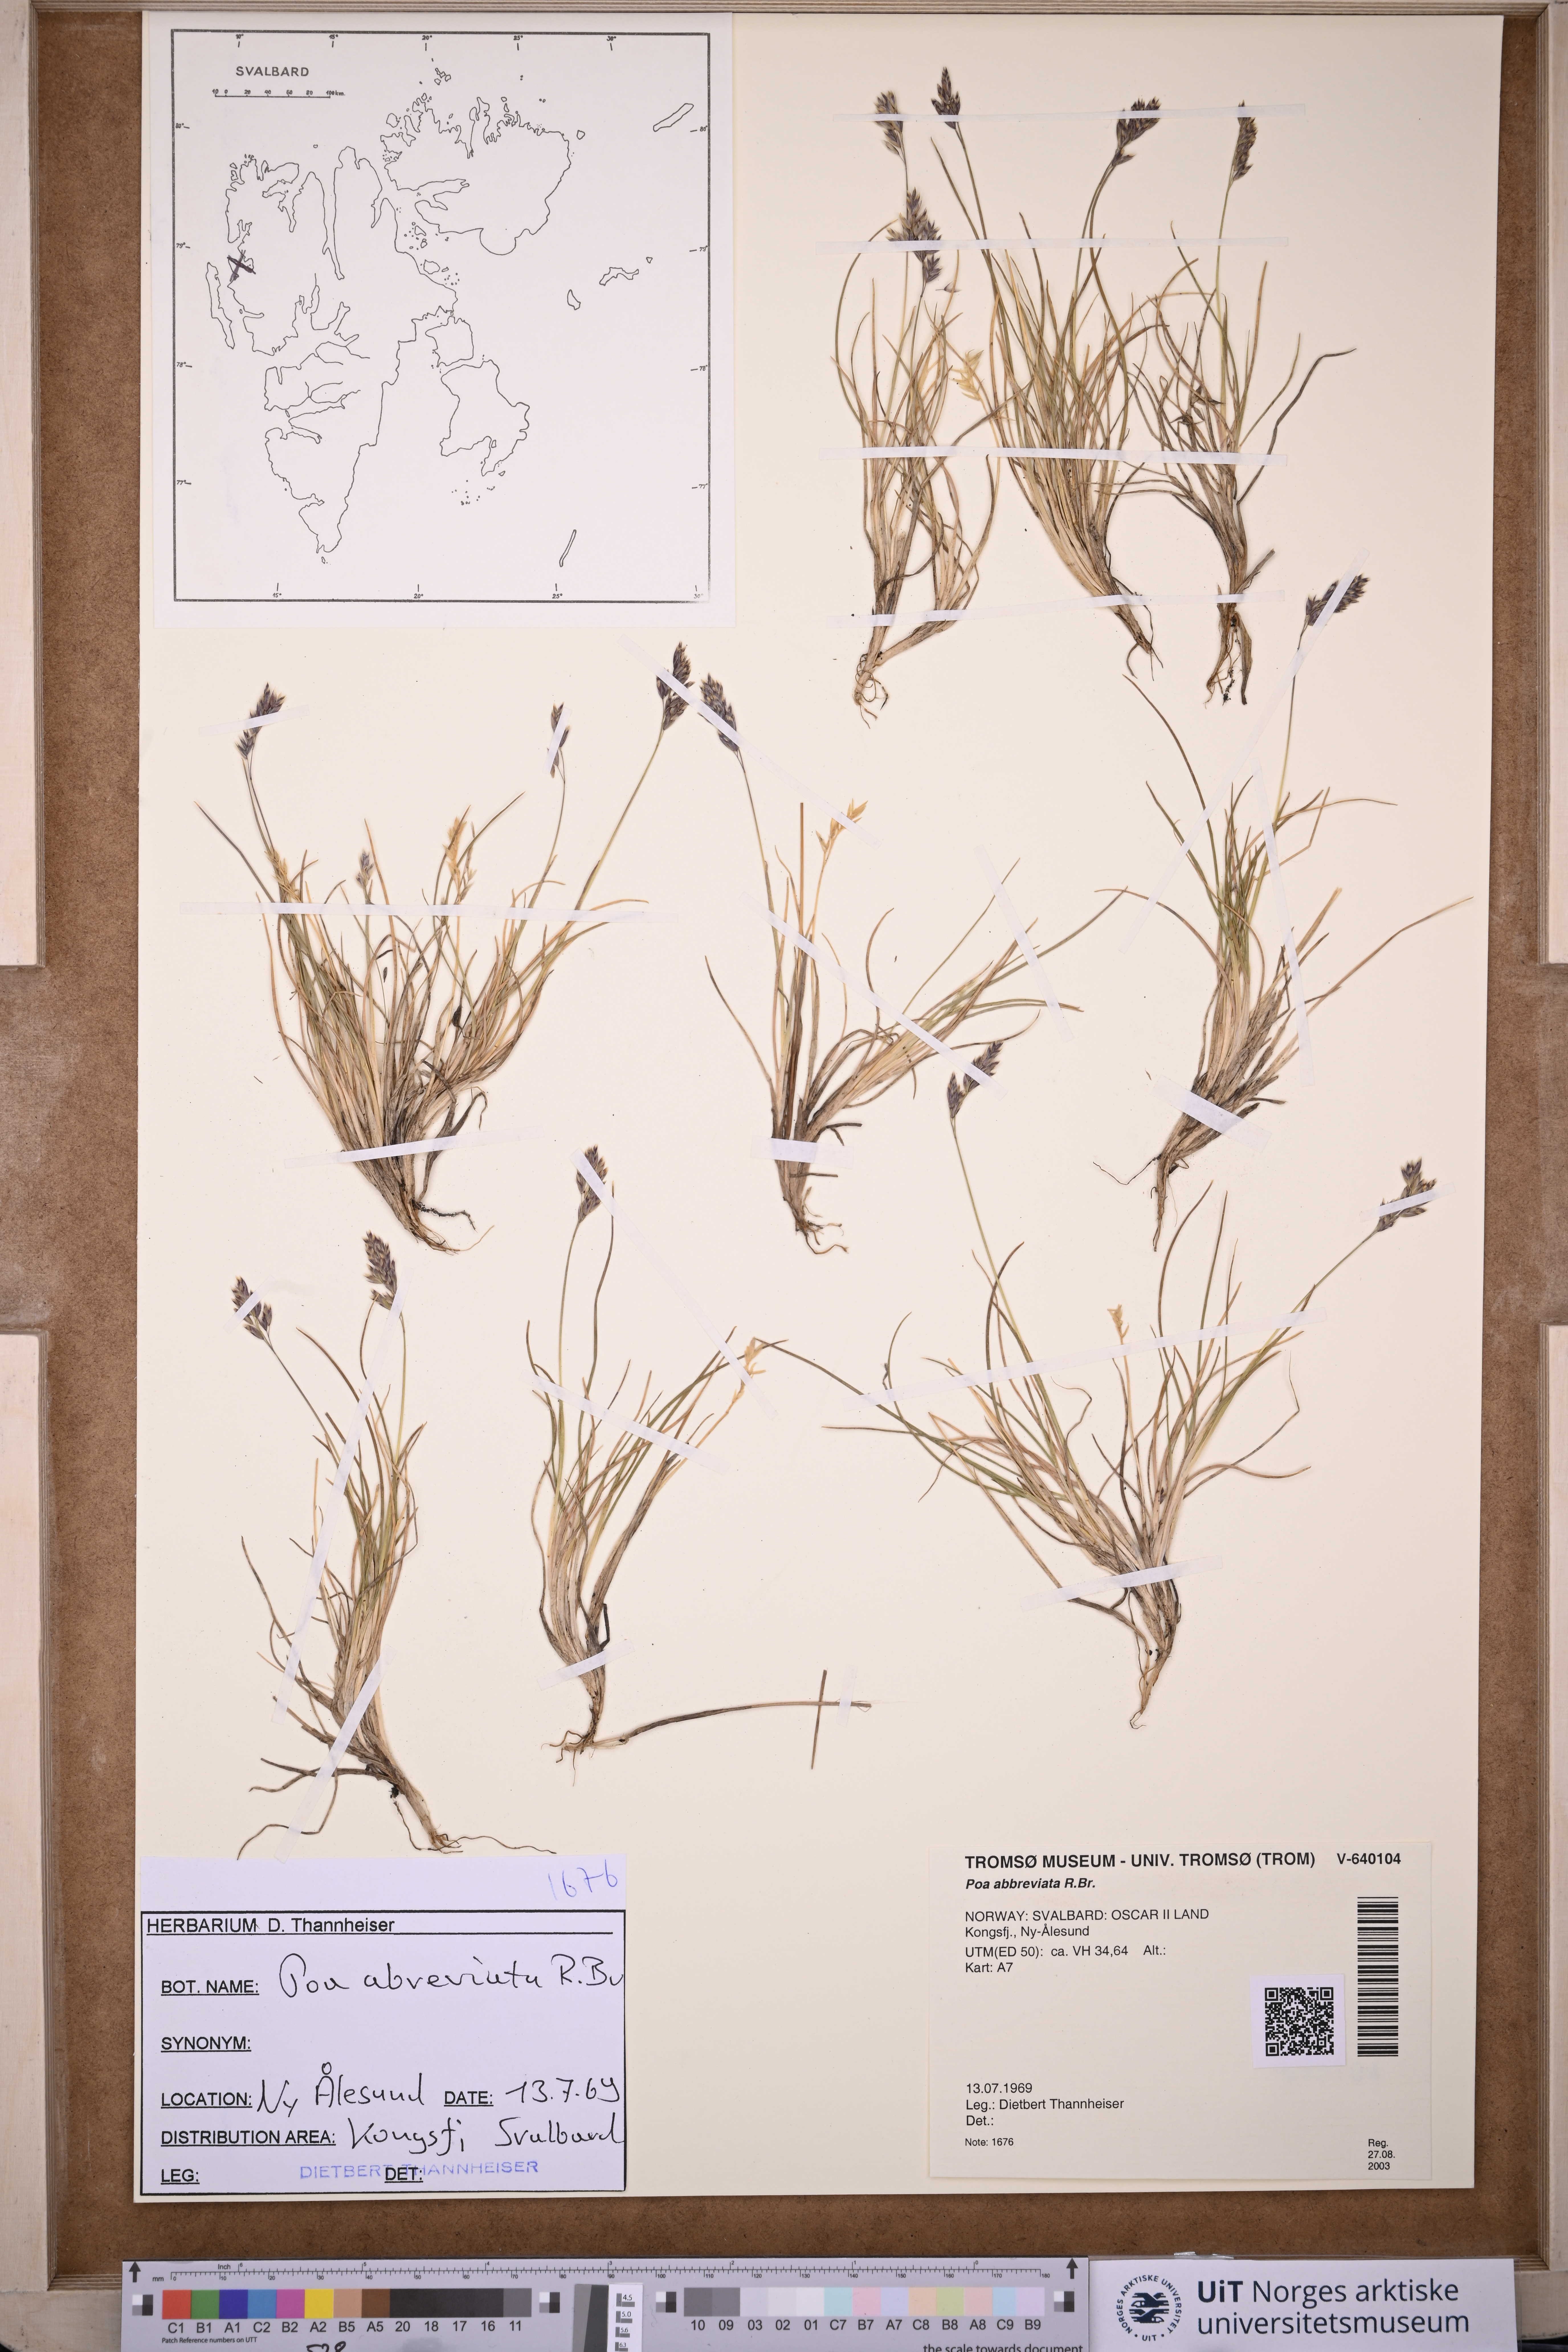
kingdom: Plantae
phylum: Tracheophyta
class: Liliopsida
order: Poales
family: Poaceae
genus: Poa
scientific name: Poa abbreviata
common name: Abbreviated bluegrass
